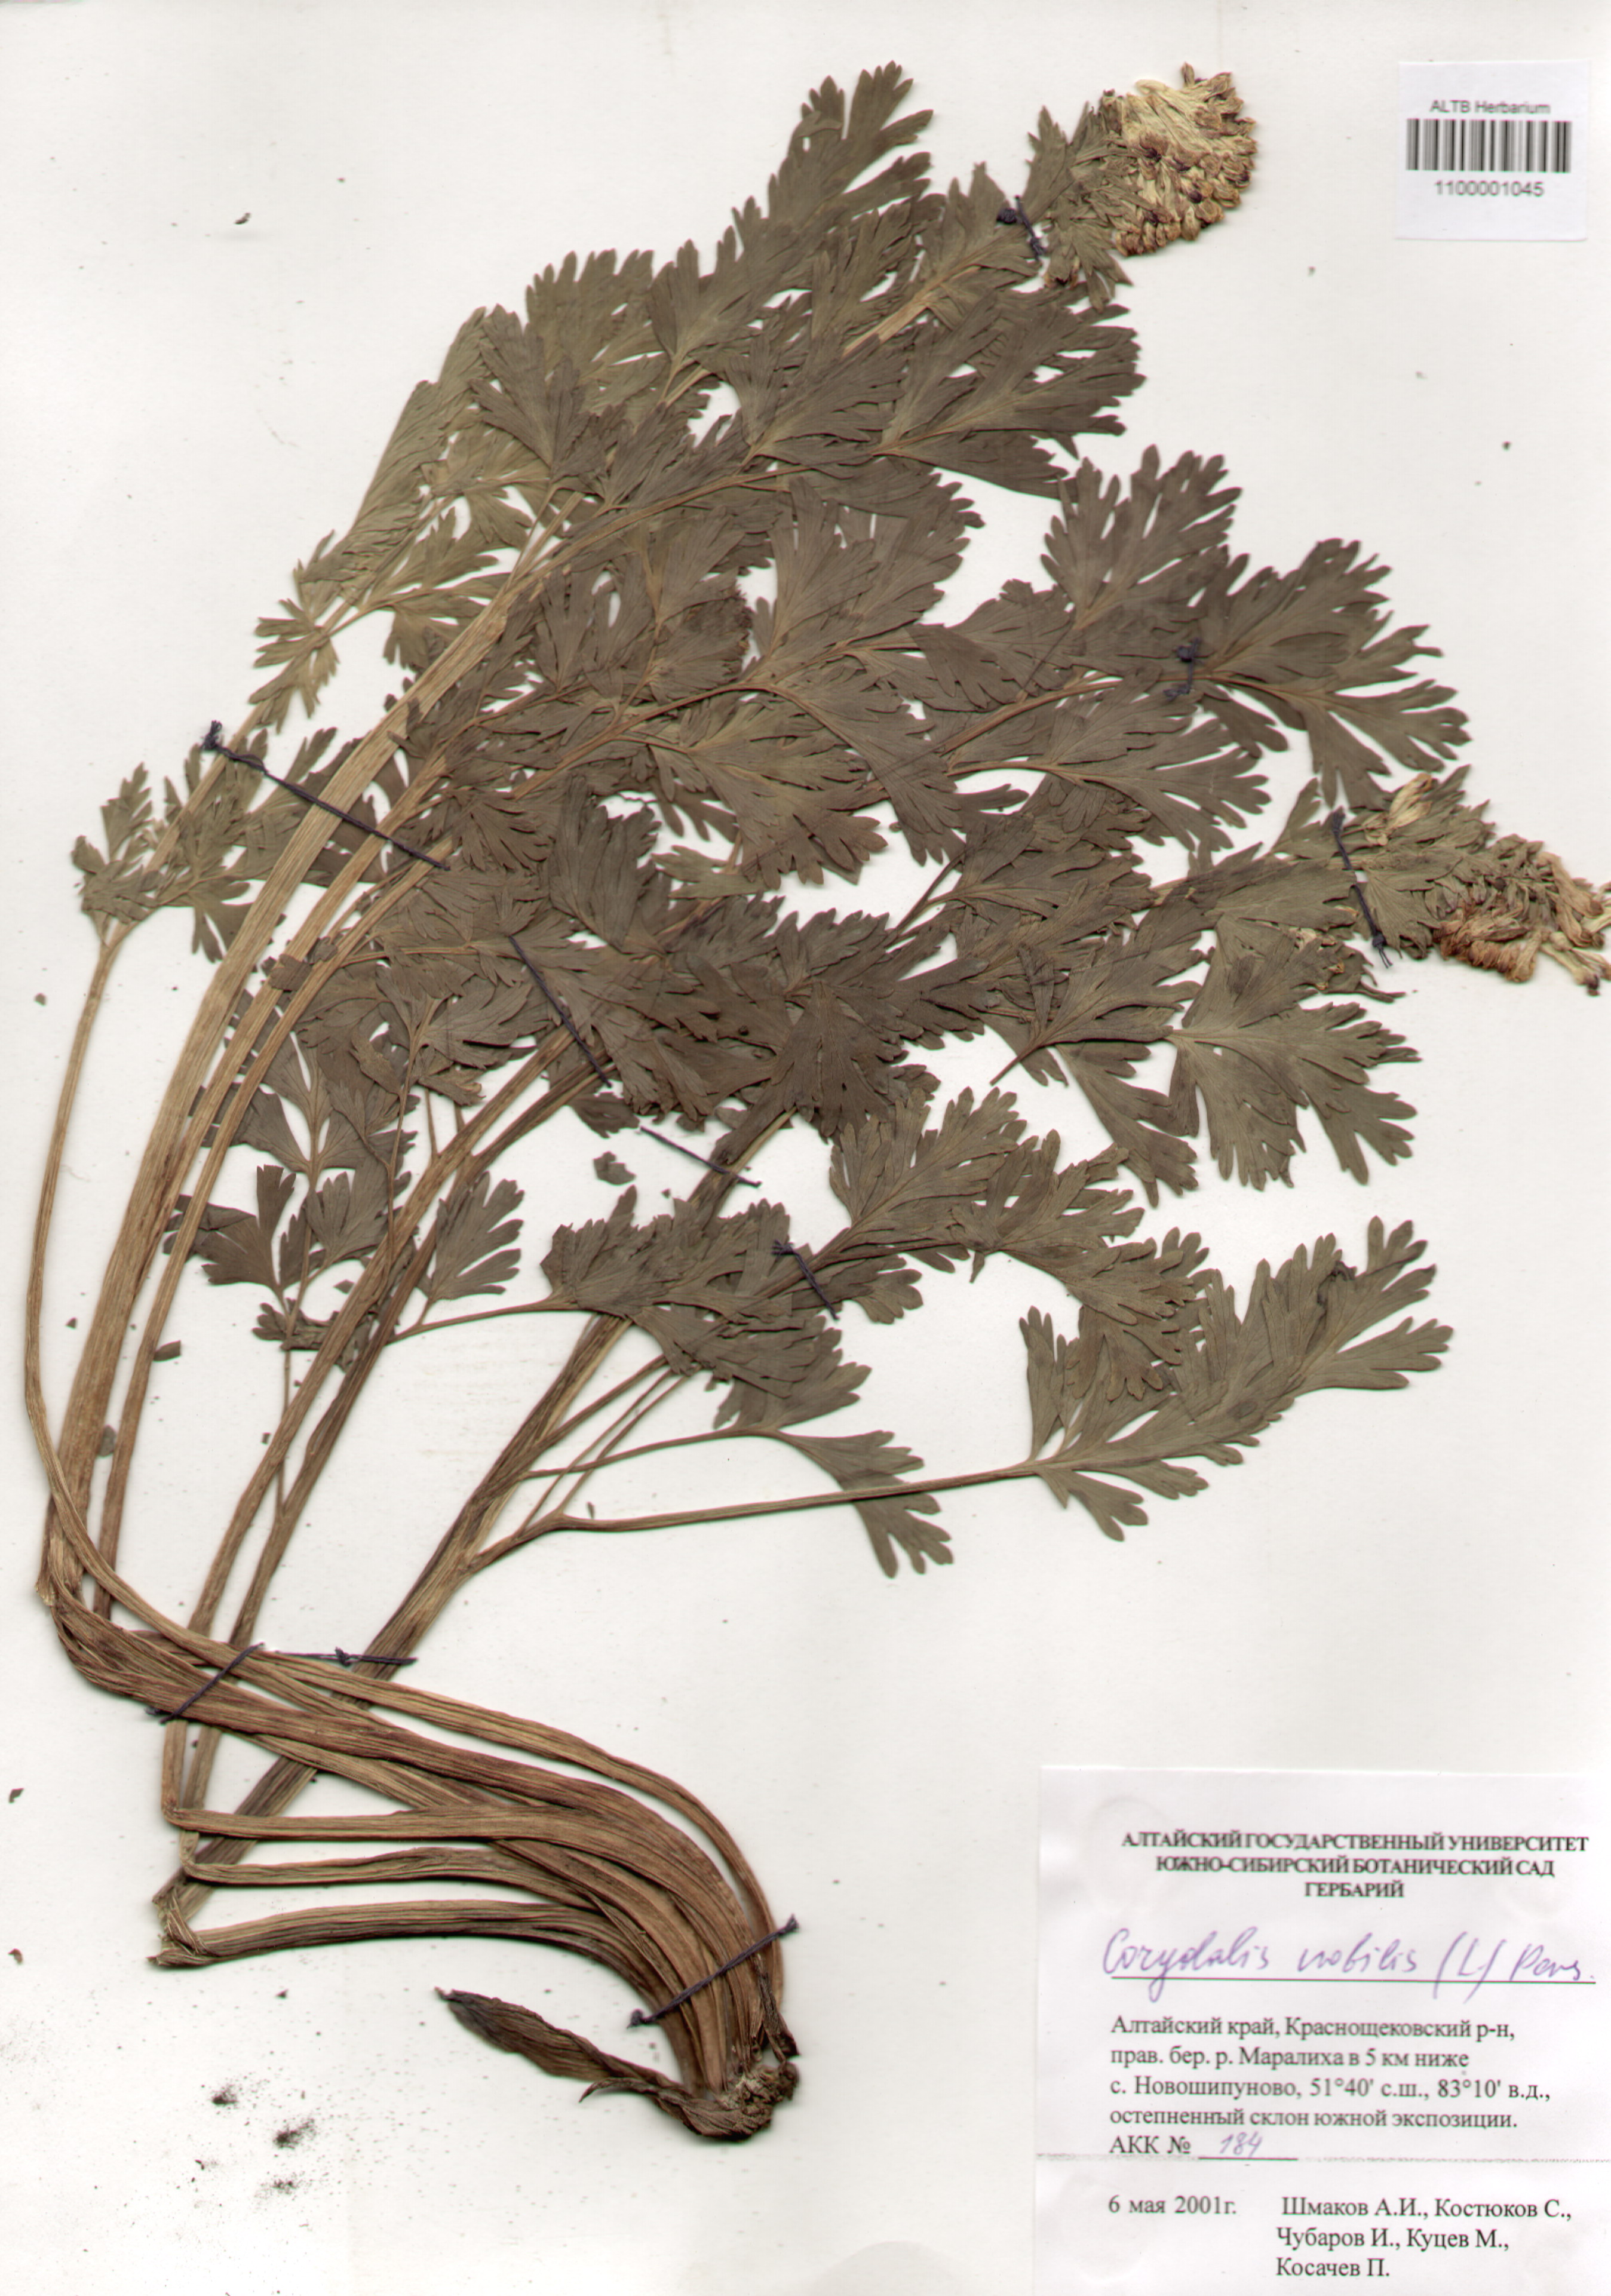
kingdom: Plantae
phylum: Tracheophyta
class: Magnoliopsida
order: Ranunculales
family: Papaveraceae
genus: Corydalis
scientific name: Corydalis nobilis
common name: Siberian corydalis
